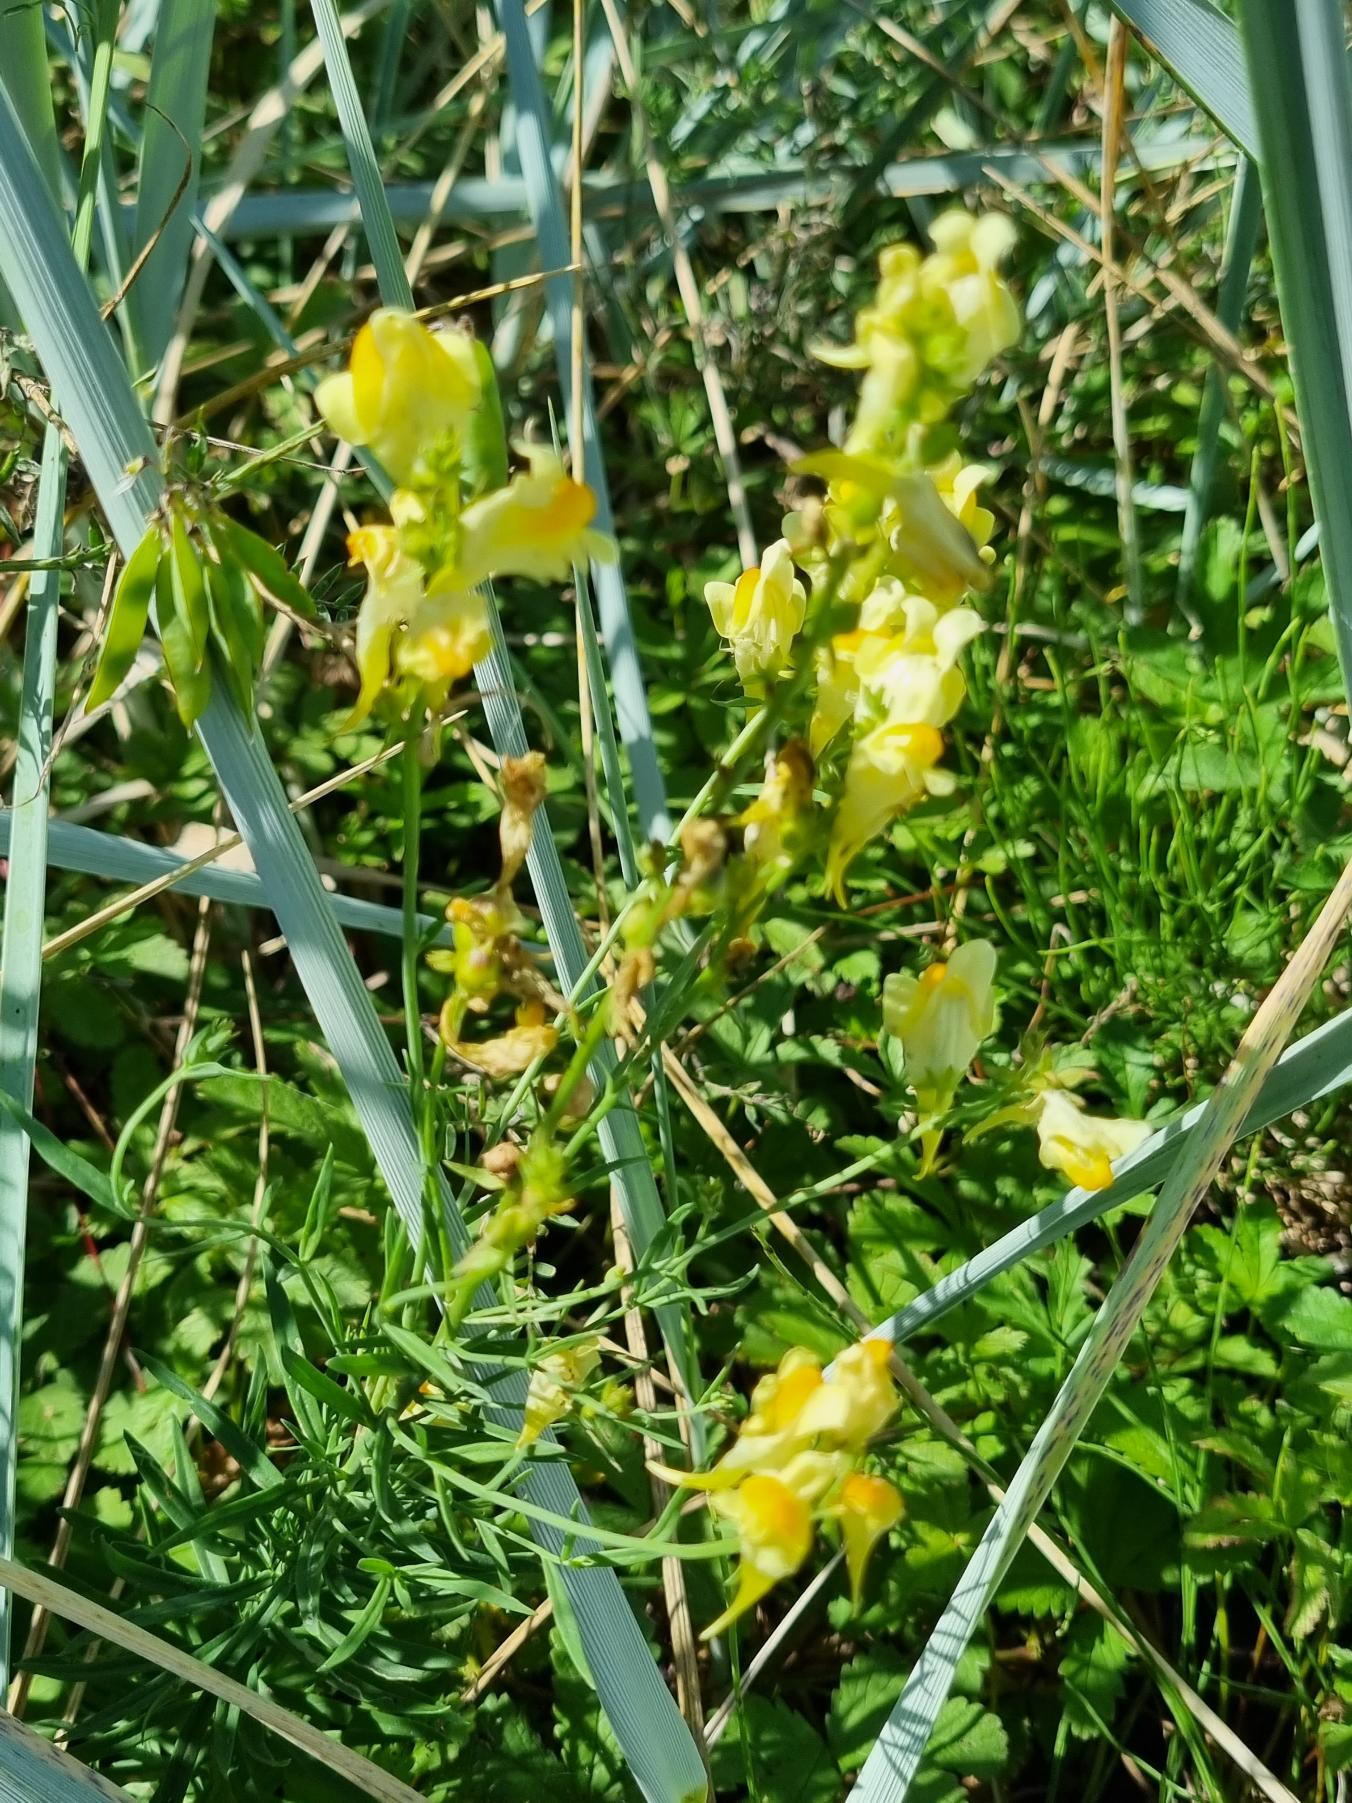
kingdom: Plantae
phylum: Tracheophyta
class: Magnoliopsida
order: Lamiales
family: Plantaginaceae
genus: Linaria
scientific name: Linaria vulgaris
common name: Almindelig torskemund
